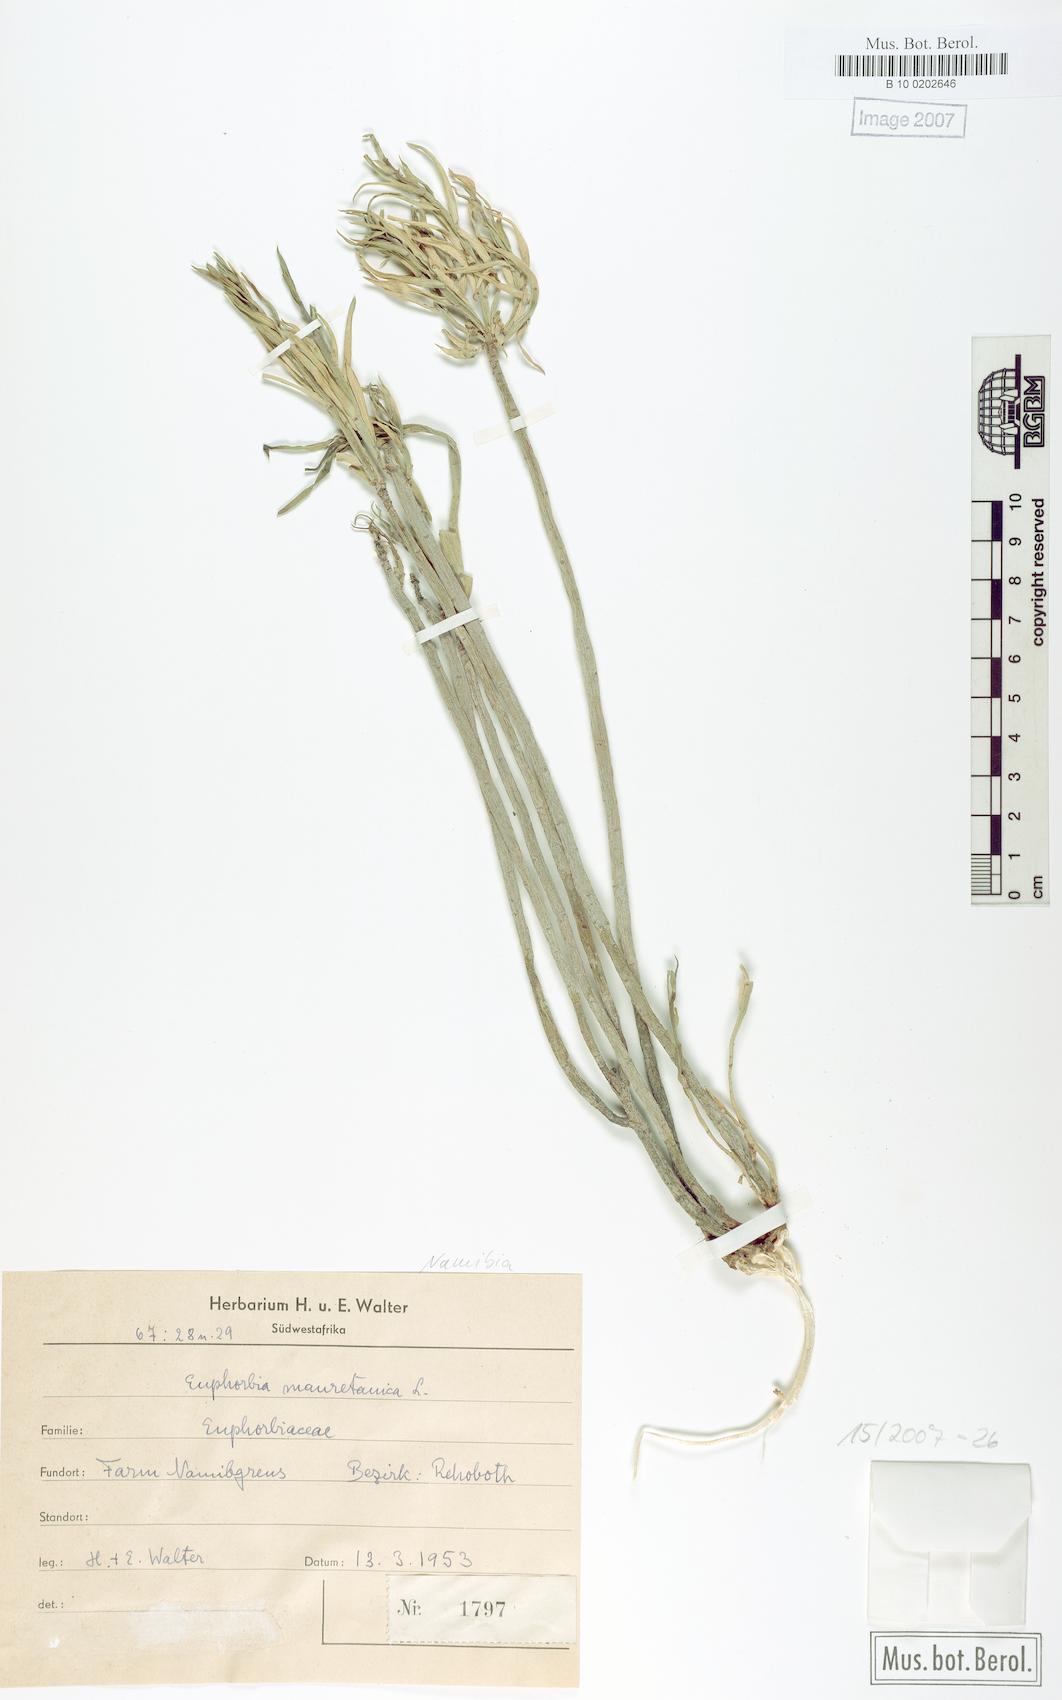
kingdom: Plantae
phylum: Tracheophyta
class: Magnoliopsida
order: Malpighiales
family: Euphorbiaceae
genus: Euphorbia
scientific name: Euphorbia mauritanica
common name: Jackal's-food
